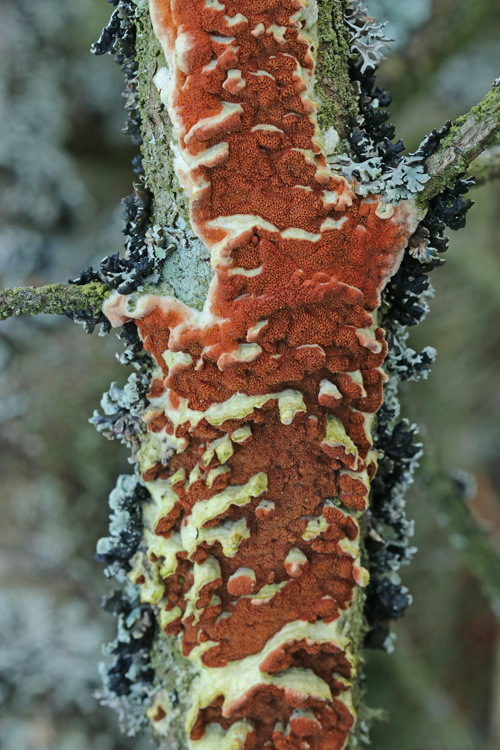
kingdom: Fungi
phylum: Basidiomycota
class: Agaricomycetes
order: Polyporales
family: Irpicaceae
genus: Meruliopsis
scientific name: Meruliopsis taxicola
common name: purpurbrun foldporesvamp
